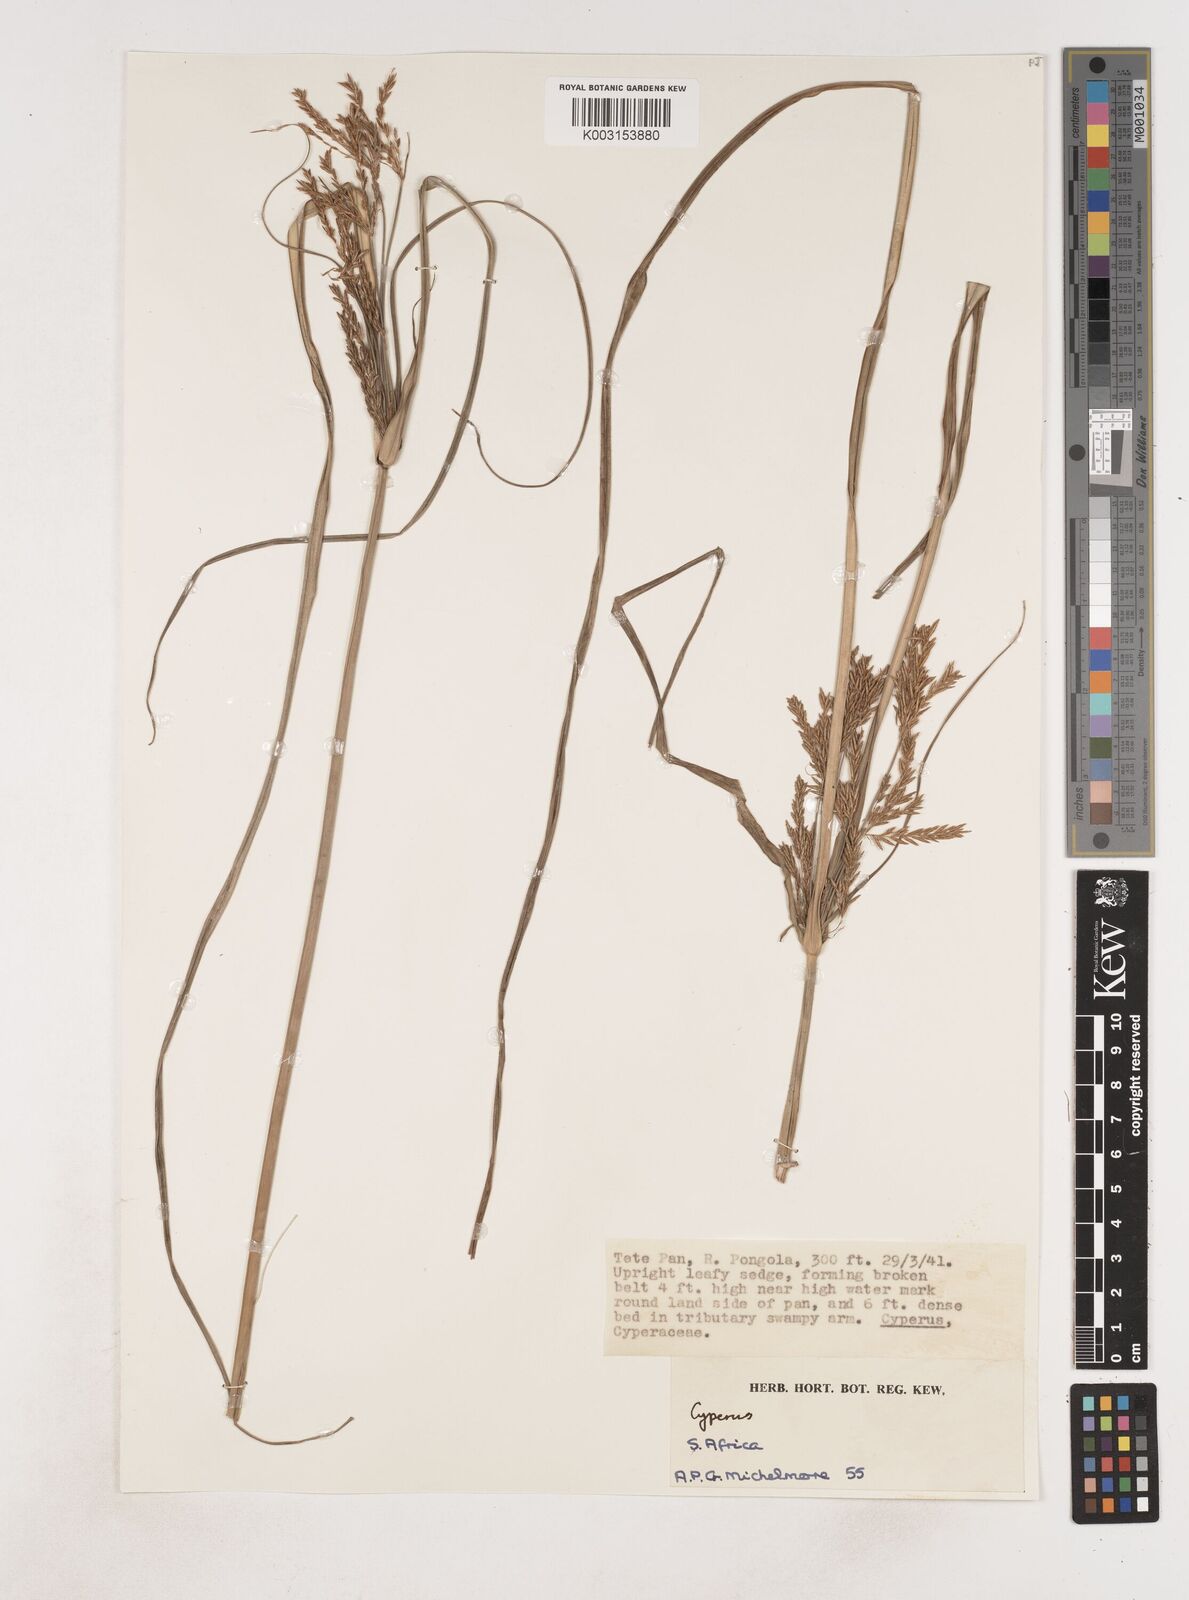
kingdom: Plantae
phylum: Tracheophyta
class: Liliopsida
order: Poales
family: Cyperaceae
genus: Cyperus
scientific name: Cyperus
